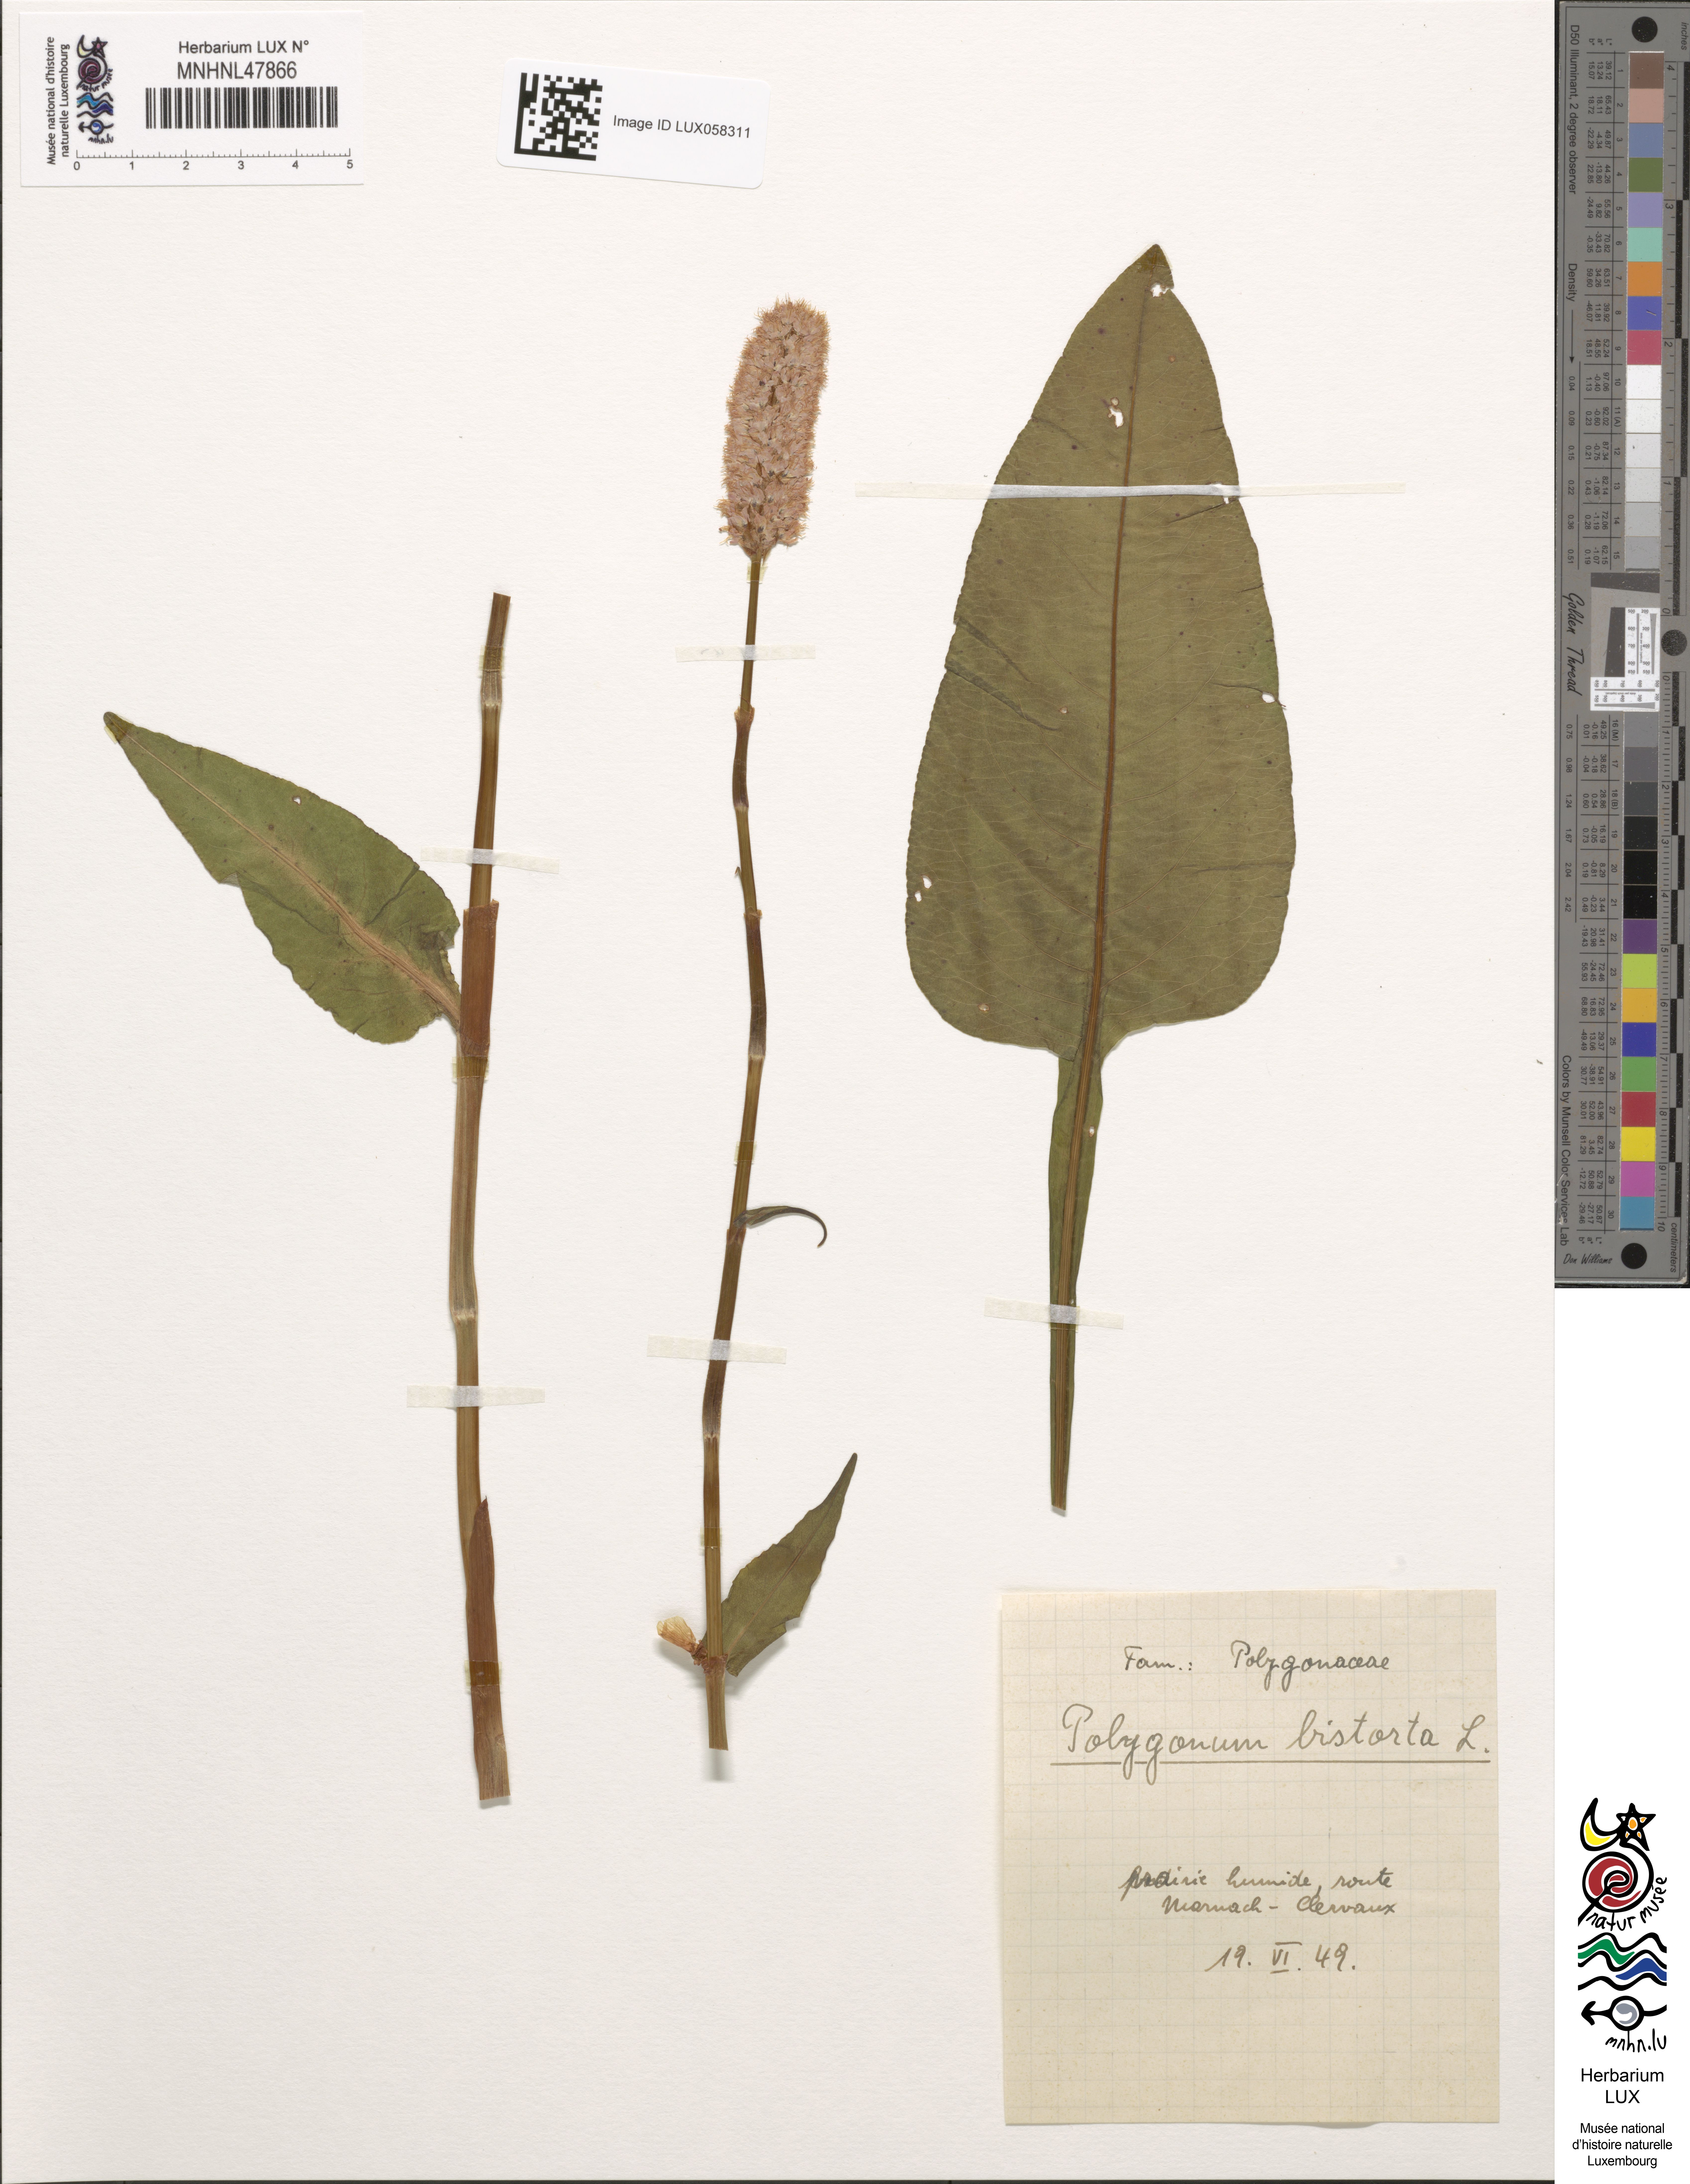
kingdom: Plantae
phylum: Tracheophyta
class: Magnoliopsida
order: Caryophyllales
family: Polygonaceae
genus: Bistorta
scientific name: Bistorta officinalis
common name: Common bistort
